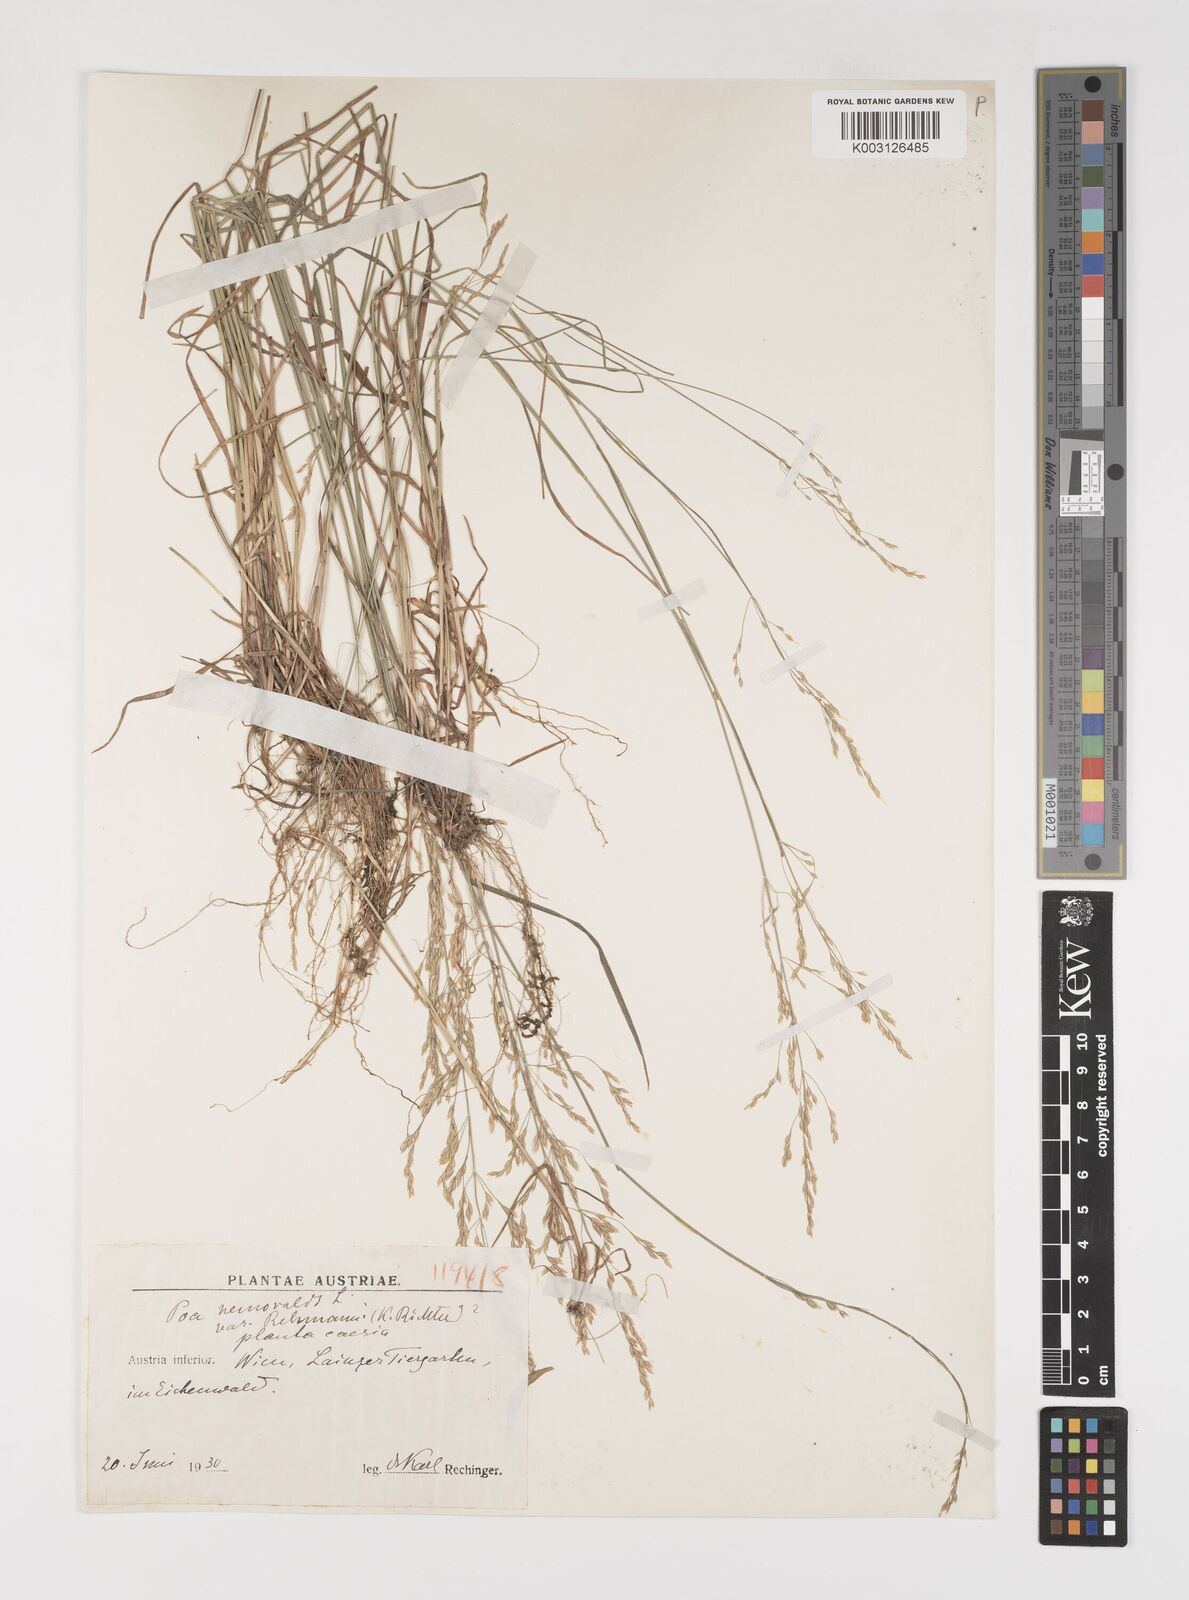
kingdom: Plantae
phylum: Tracheophyta
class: Liliopsida
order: Poales
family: Poaceae
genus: Poa
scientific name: Poa
